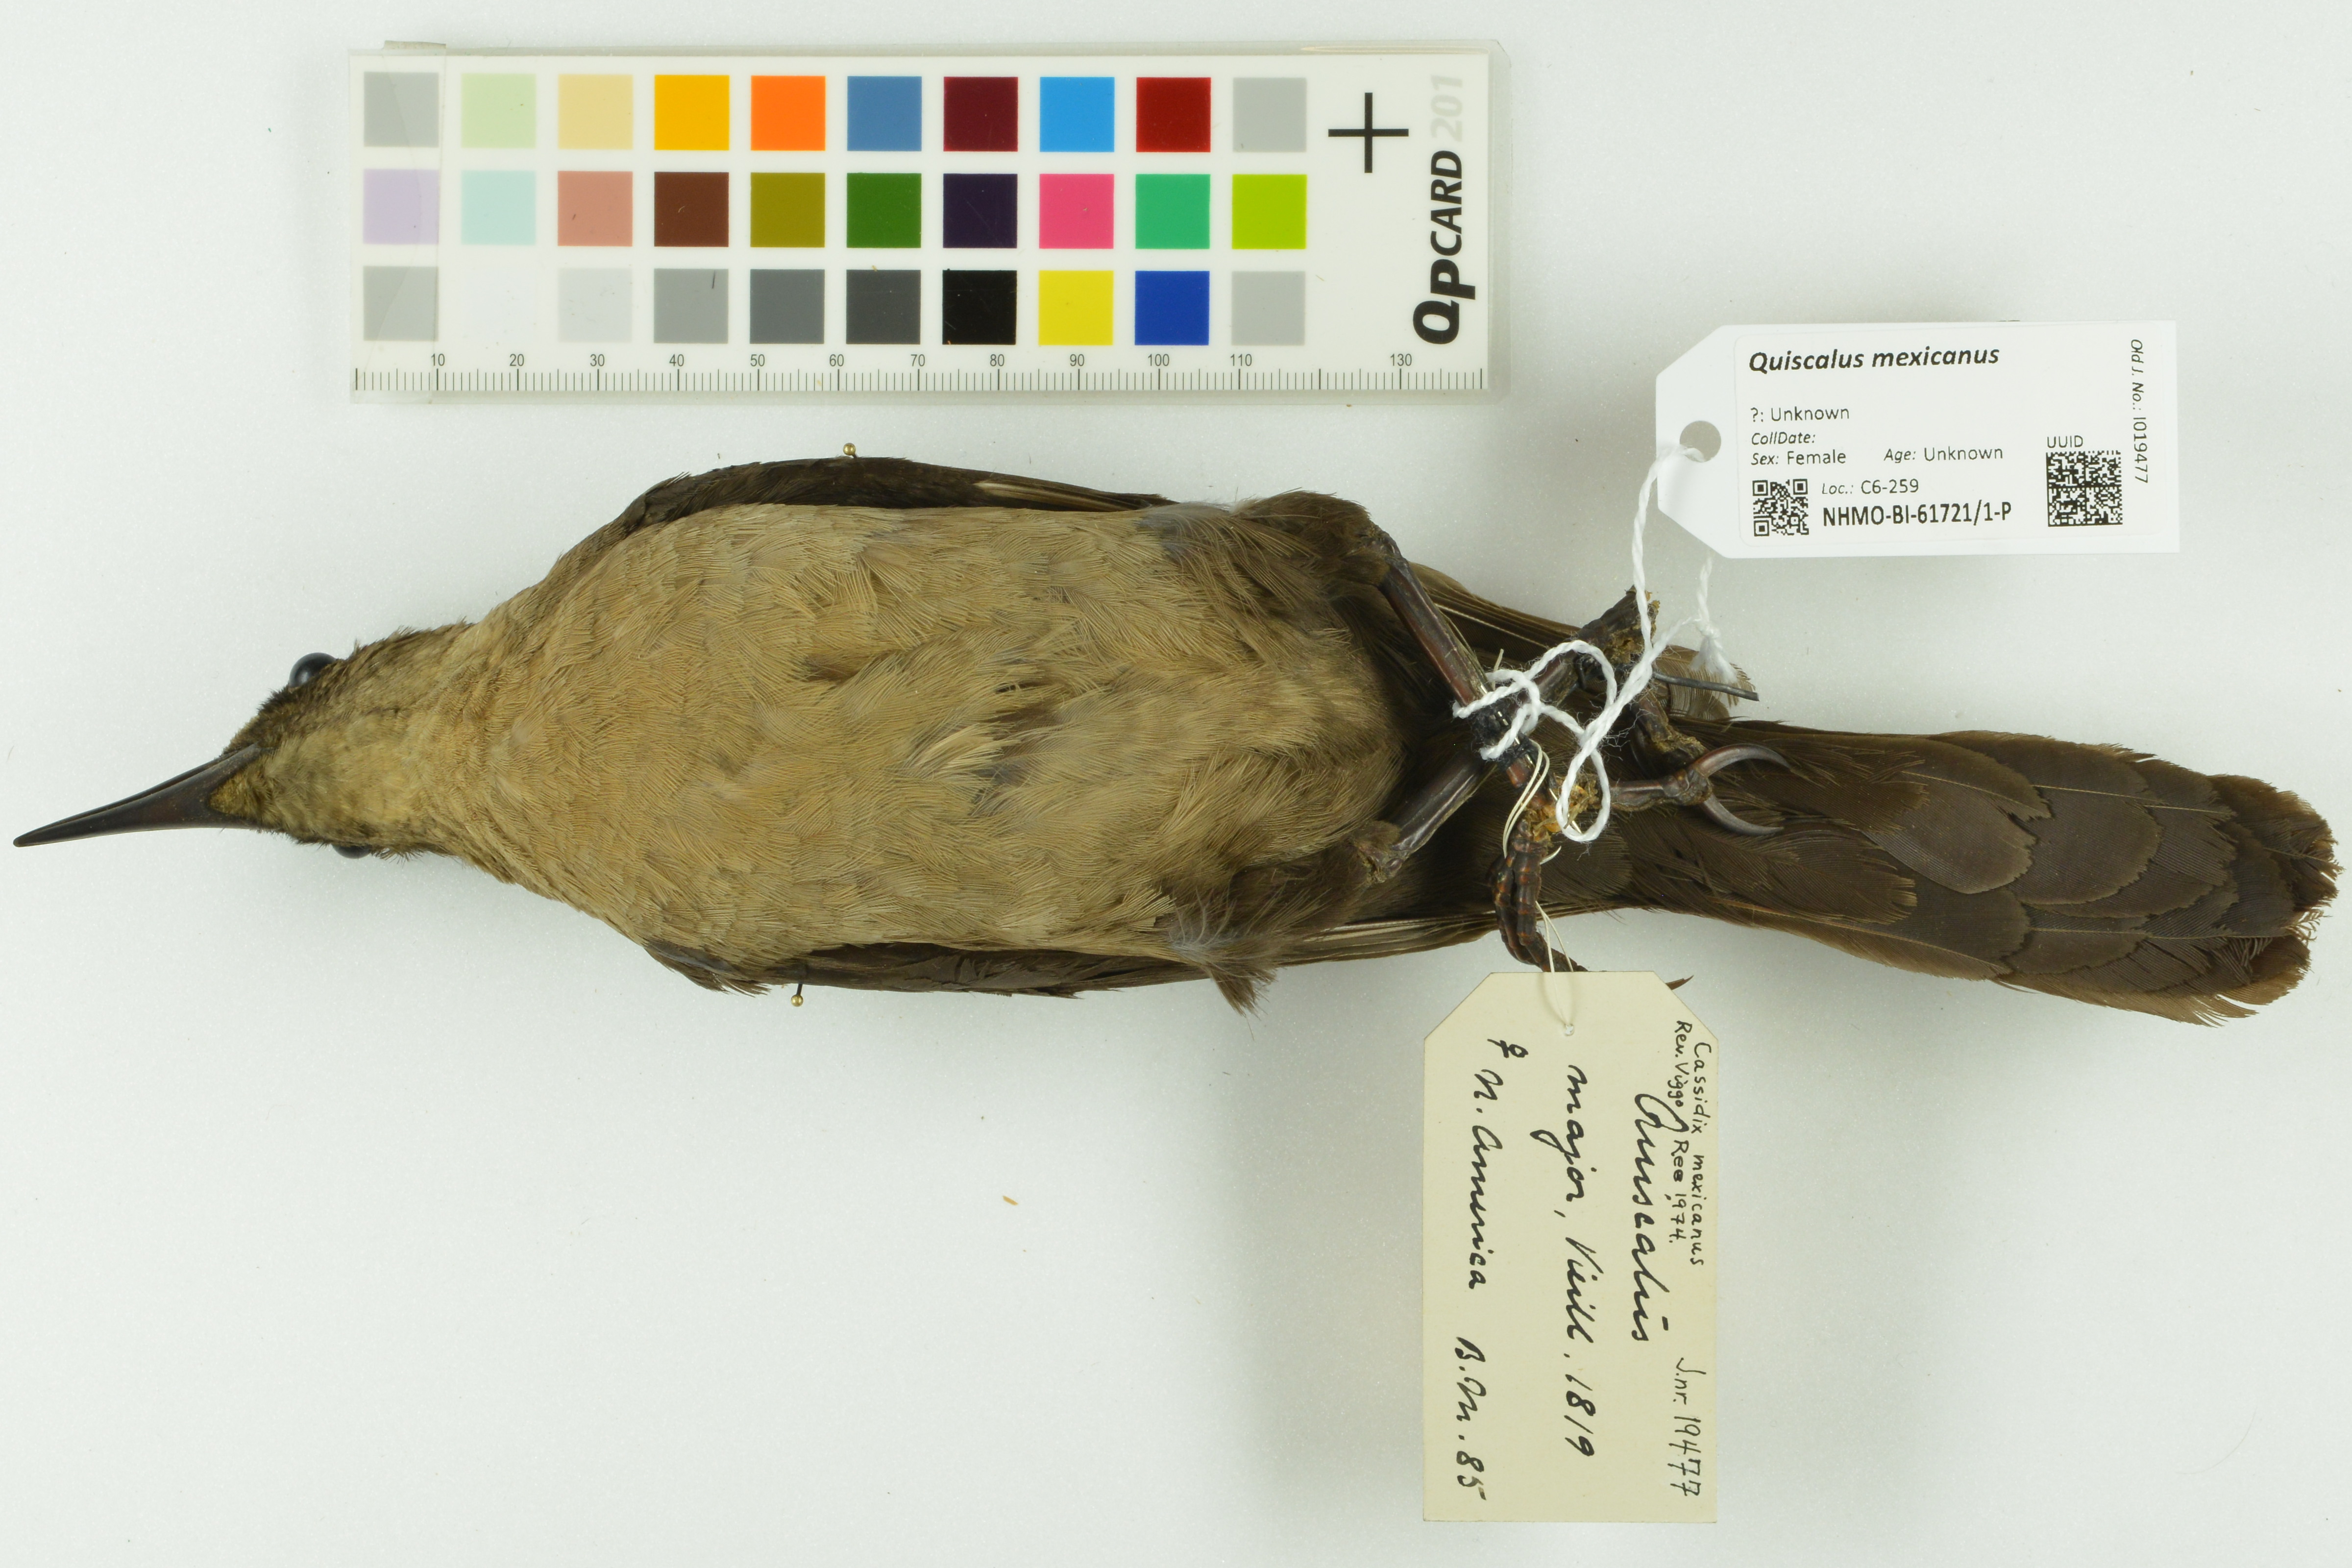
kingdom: Animalia
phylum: Chordata
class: Aves
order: Passeriformes
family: Icteridae
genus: Quiscalus
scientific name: Quiscalus mexicanus
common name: Great-tailed grackle
